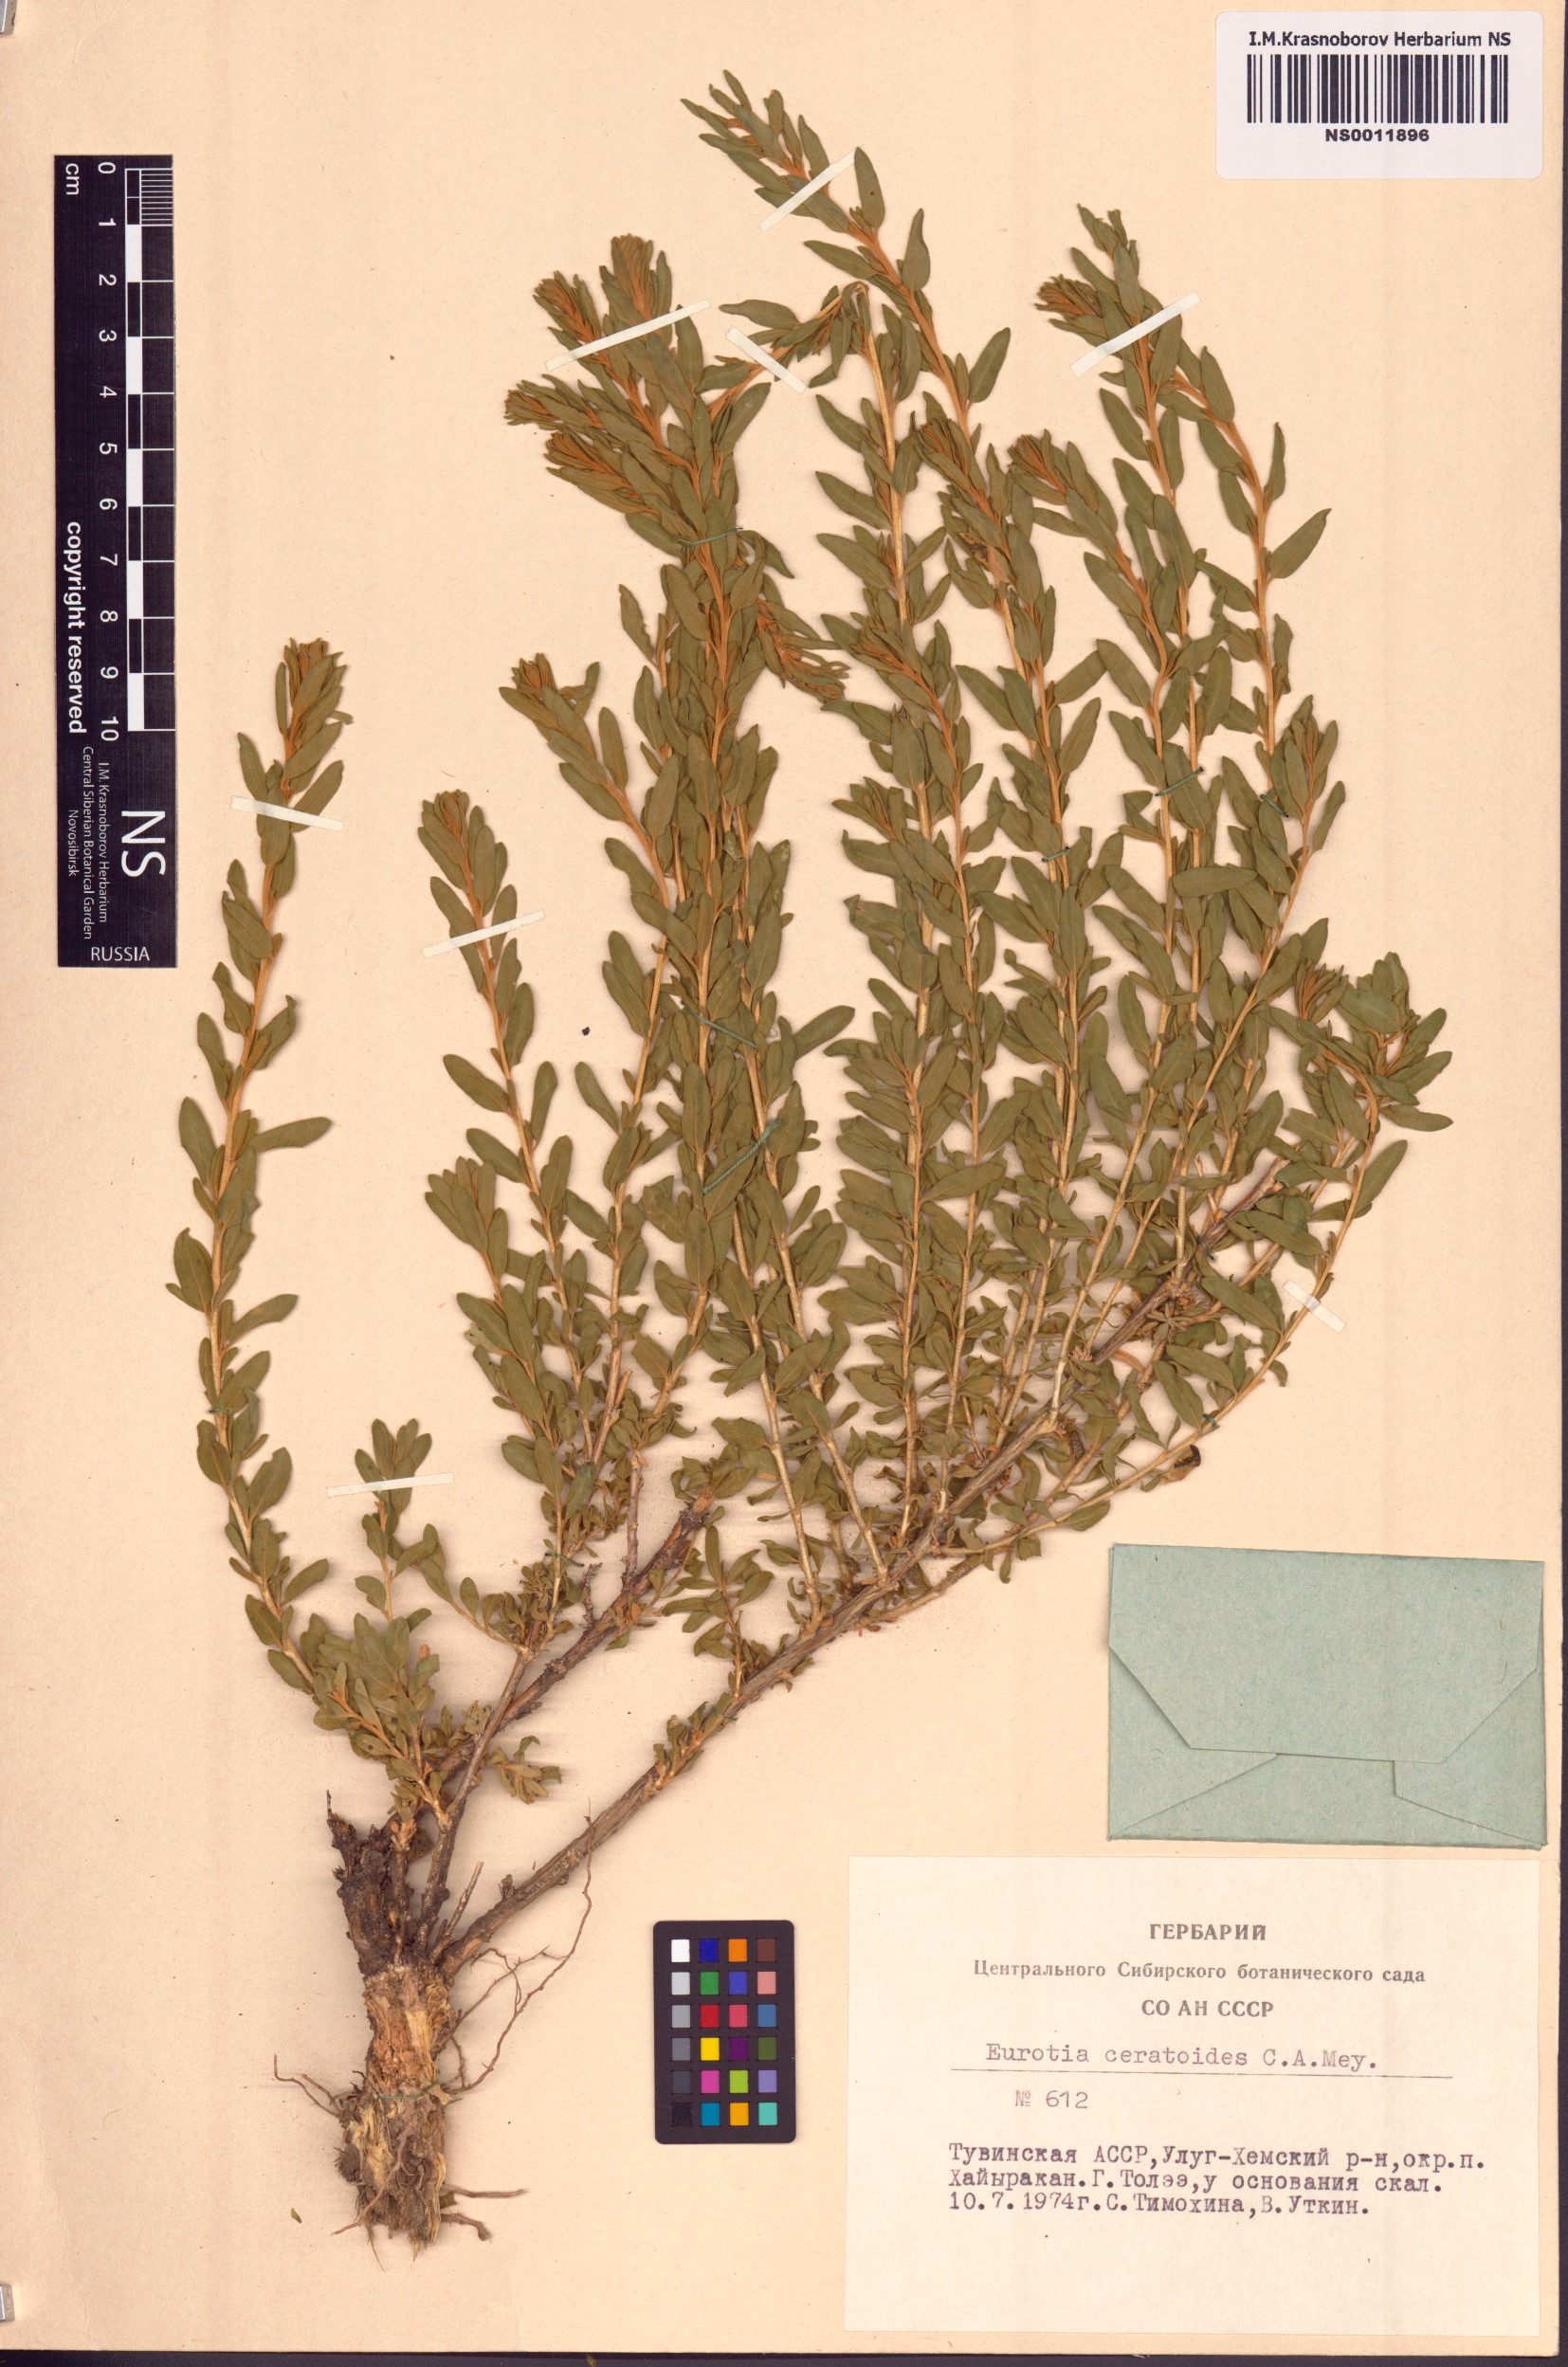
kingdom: Plantae
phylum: Tracheophyta
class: Magnoliopsida
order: Caryophyllales
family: Amaranthaceae
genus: Krascheninnikovia
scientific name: Krascheninnikovia ceratoides
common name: Pamirian winterfat
